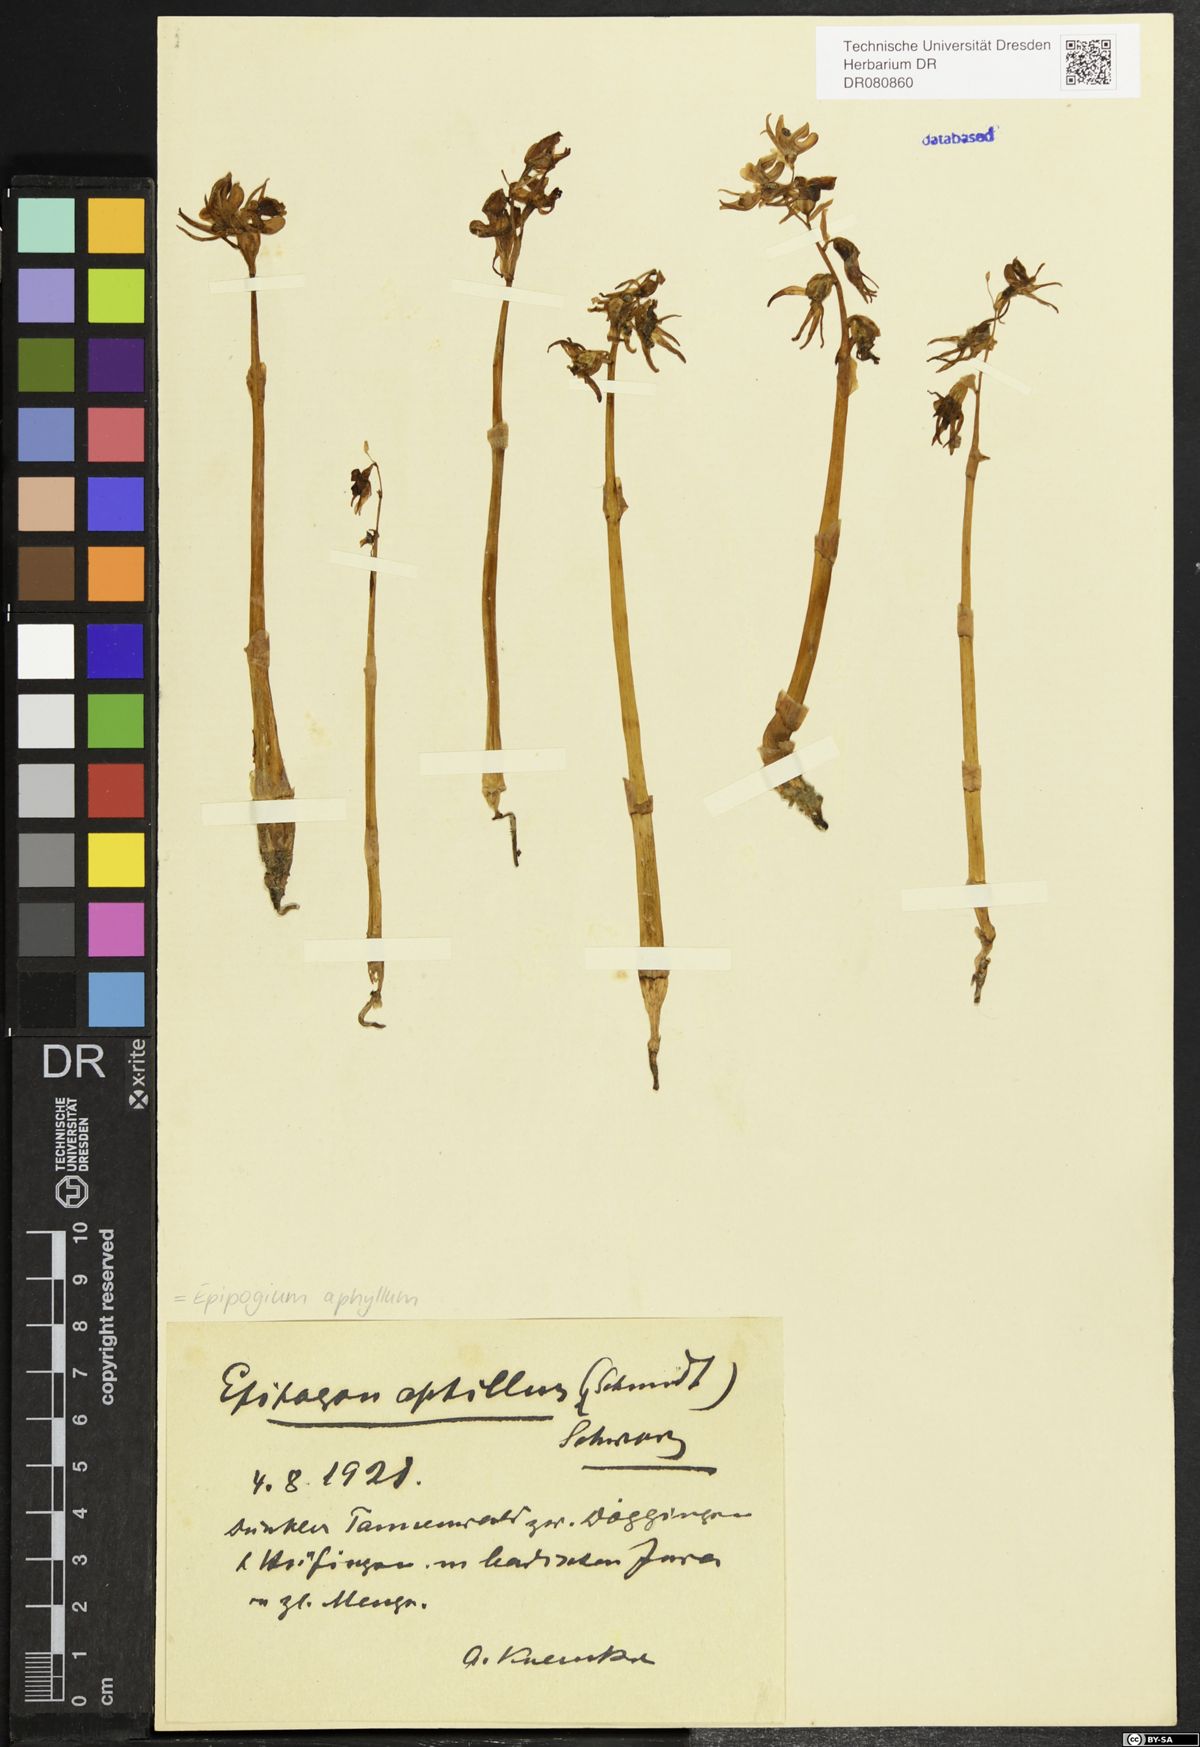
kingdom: Plantae
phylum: Tracheophyta
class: Liliopsida
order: Asparagales
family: Orchidaceae
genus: Epipogium
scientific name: Epipogium aphyllum
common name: Ghost orchid
